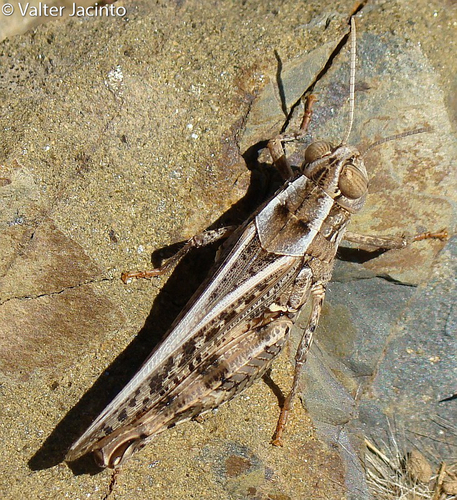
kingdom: Animalia
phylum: Arthropoda
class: Insecta
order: Orthoptera
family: Acrididae
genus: Calliptamus
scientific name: Calliptamus barbarus
